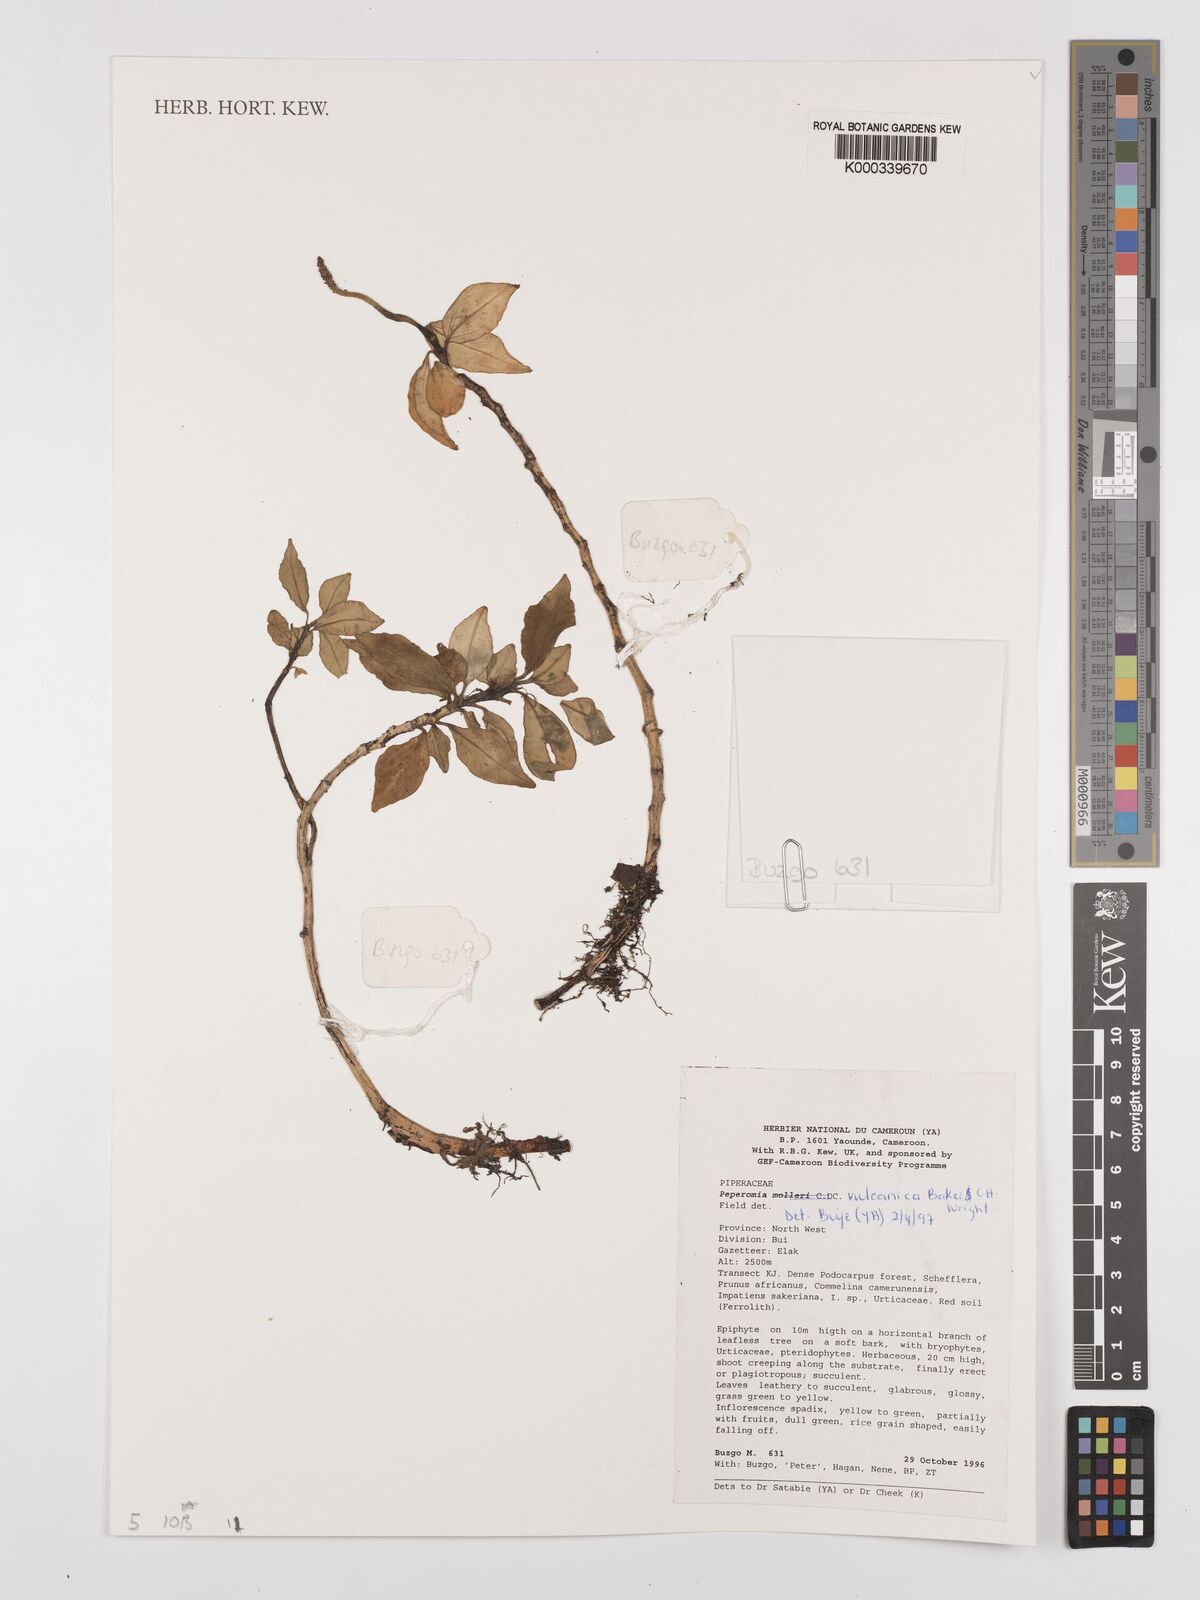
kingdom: Plantae
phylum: Tracheophyta
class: Magnoliopsida
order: Piperales
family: Piperaceae
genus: Peperomia
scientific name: Peperomia vulcanica
